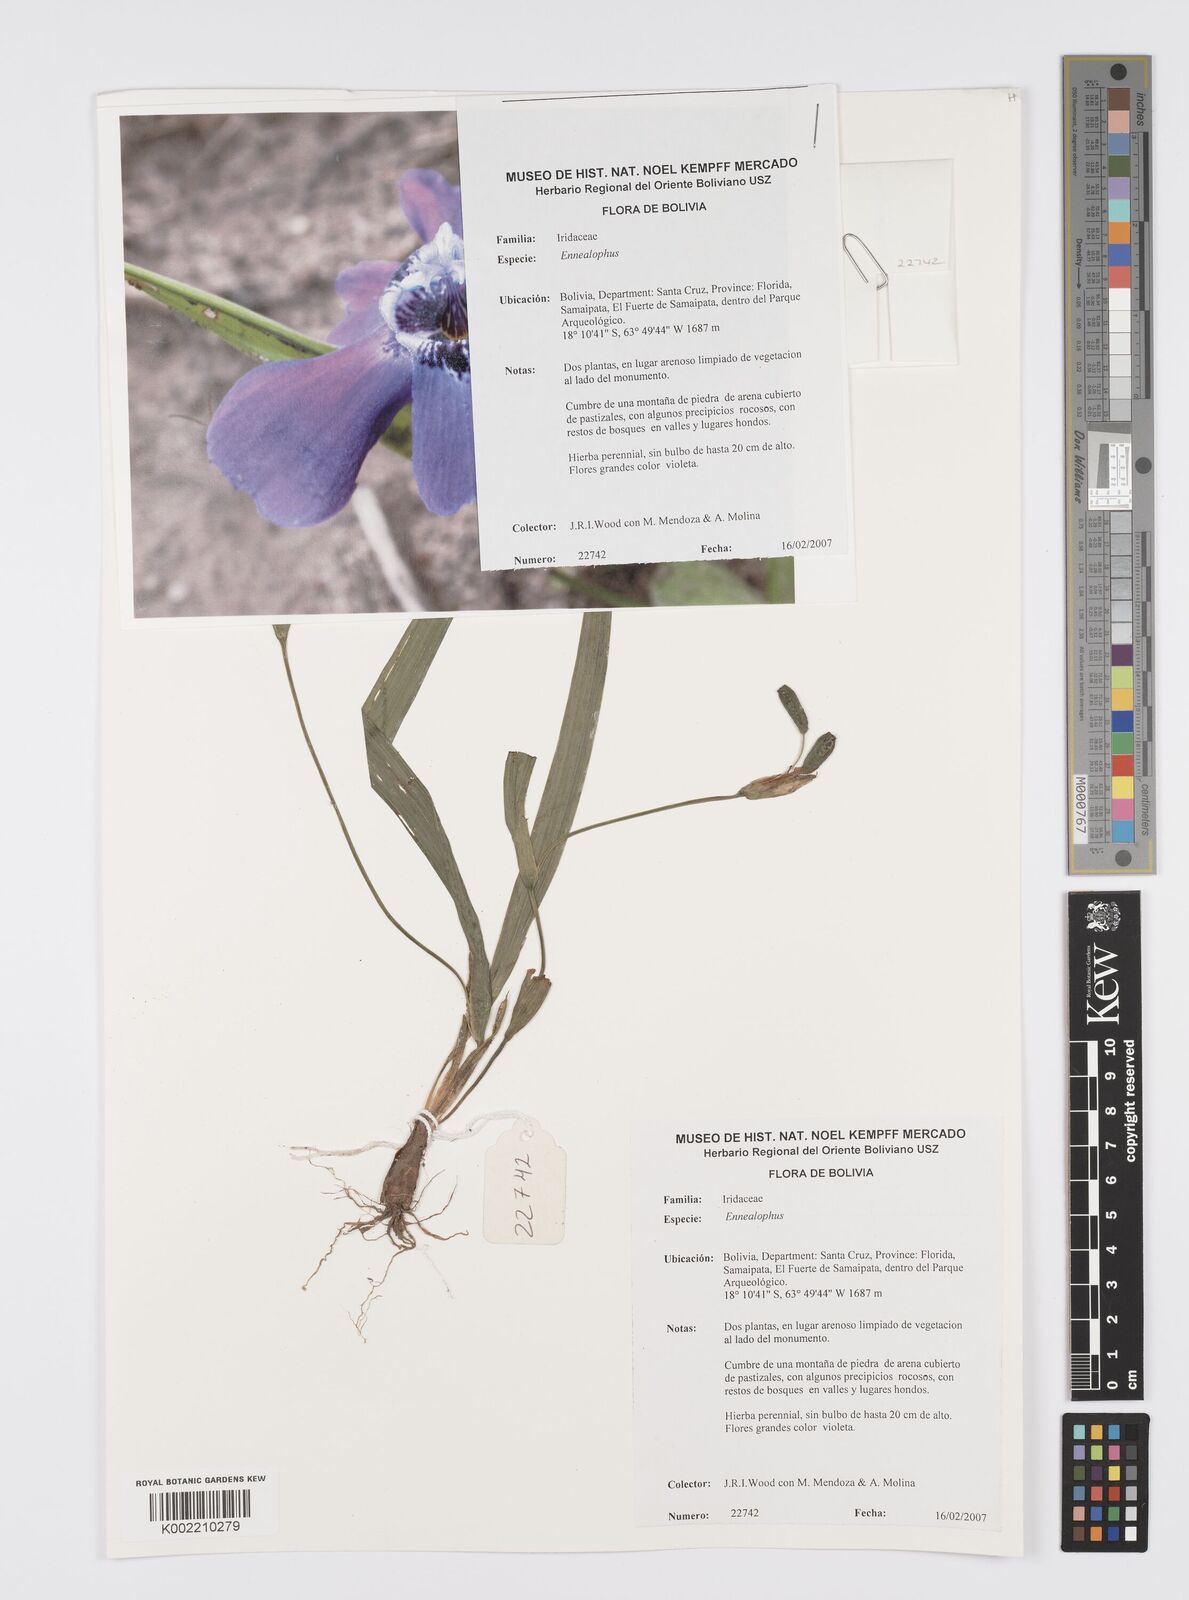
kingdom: Plantae
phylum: Tracheophyta
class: Liliopsida
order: Asparagales
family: Iridaceae
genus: Ennealophus
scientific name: Ennealophus
